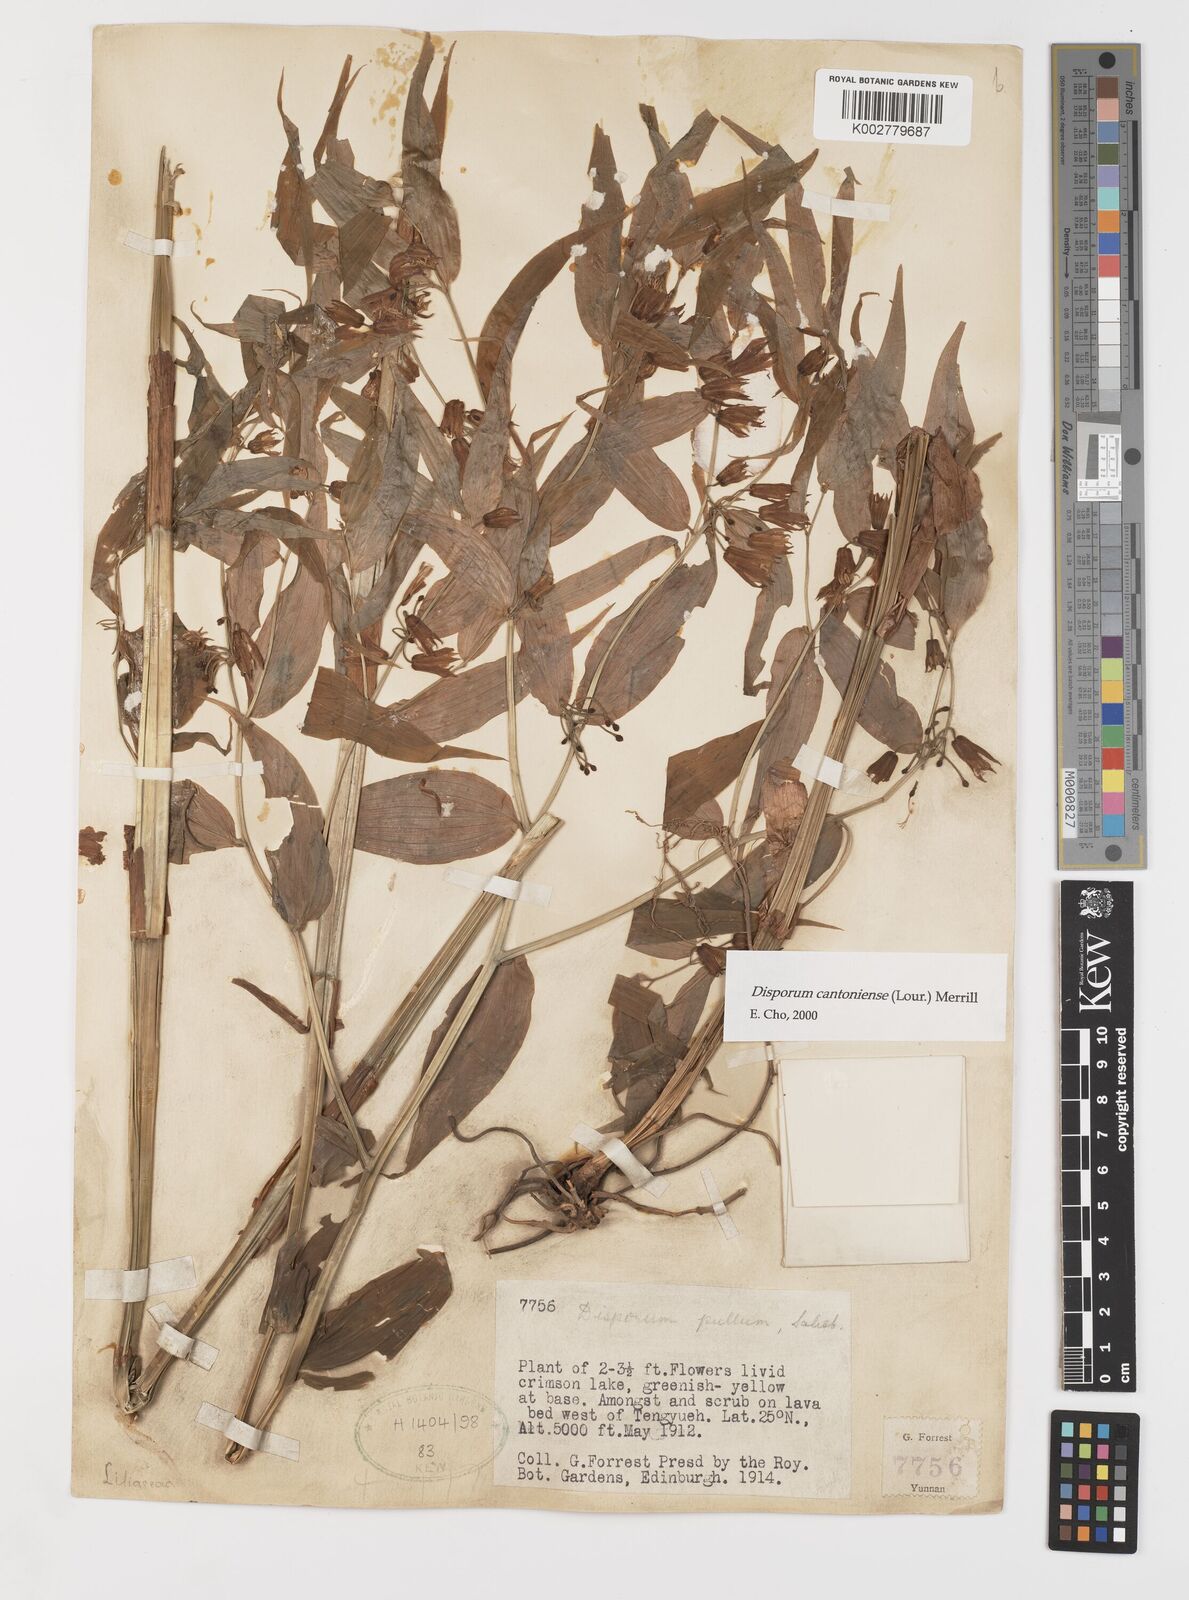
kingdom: Plantae
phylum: Tracheophyta
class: Liliopsida
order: Liliales
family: Colchicaceae
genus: Disporum
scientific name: Disporum cantoniense
